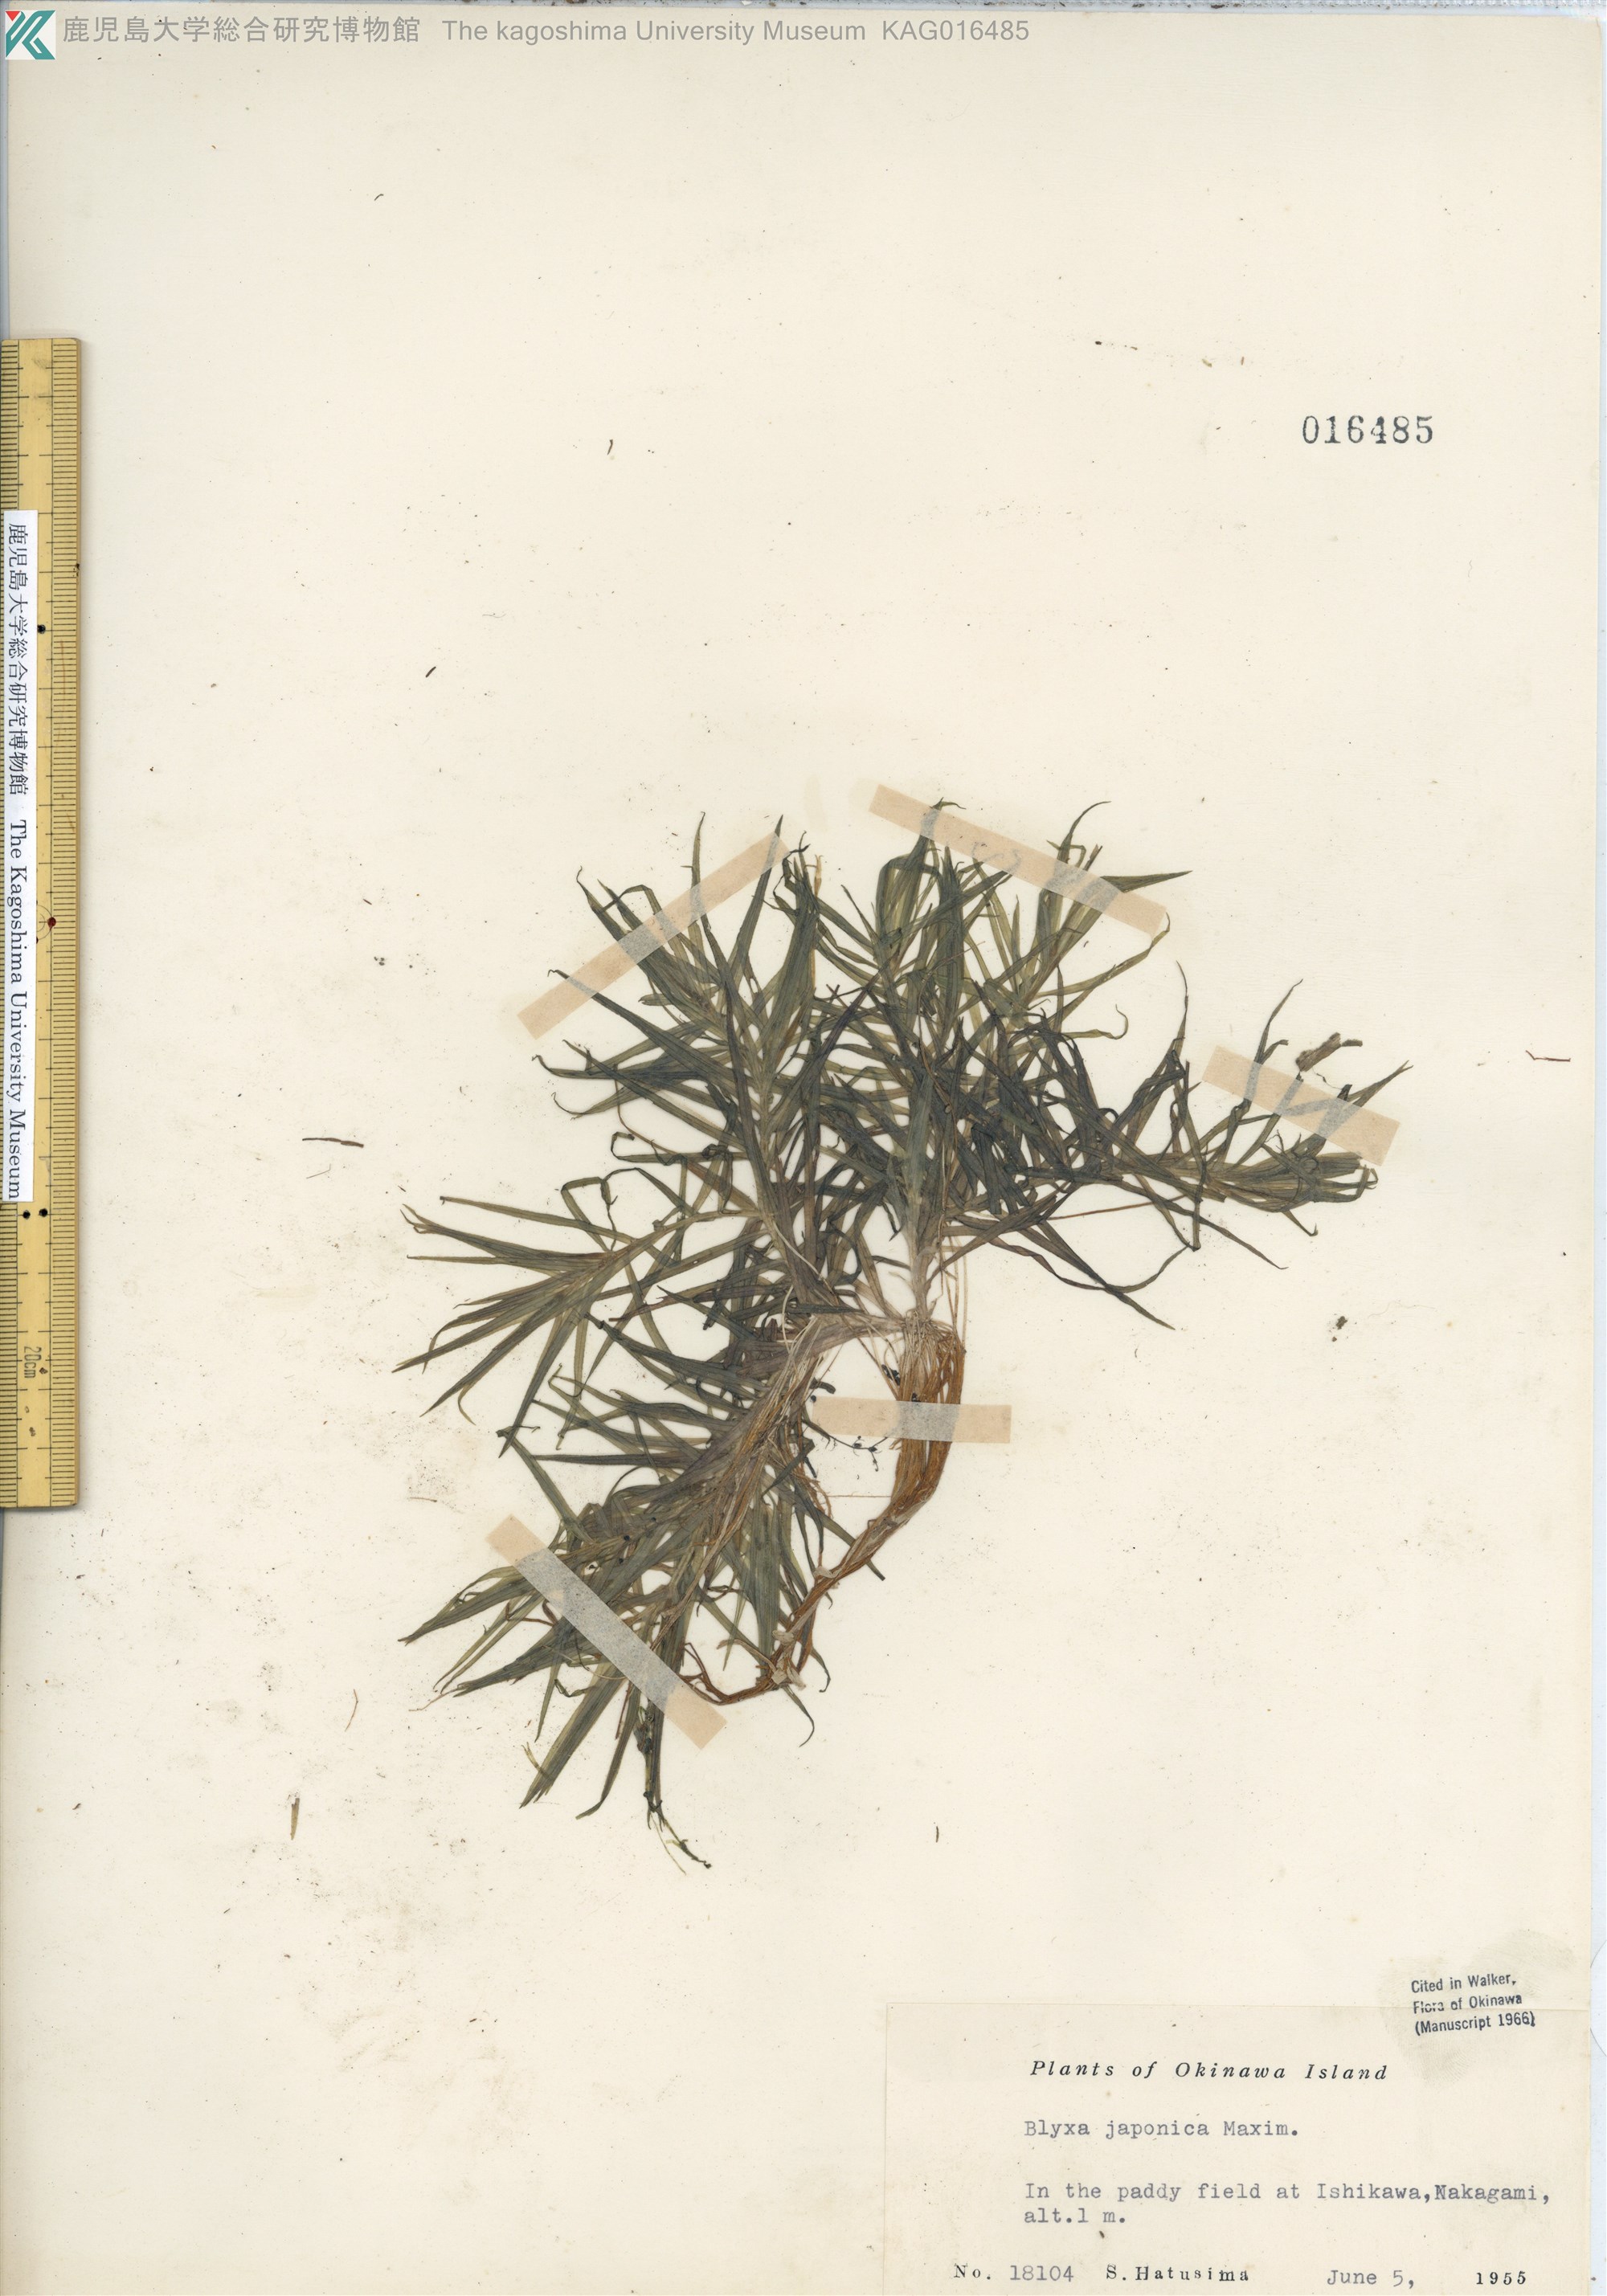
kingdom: Plantae
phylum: Tracheophyta
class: Liliopsida
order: Alismatales
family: Hydrocharitaceae
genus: Blyxa
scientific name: Blyxa japonica
